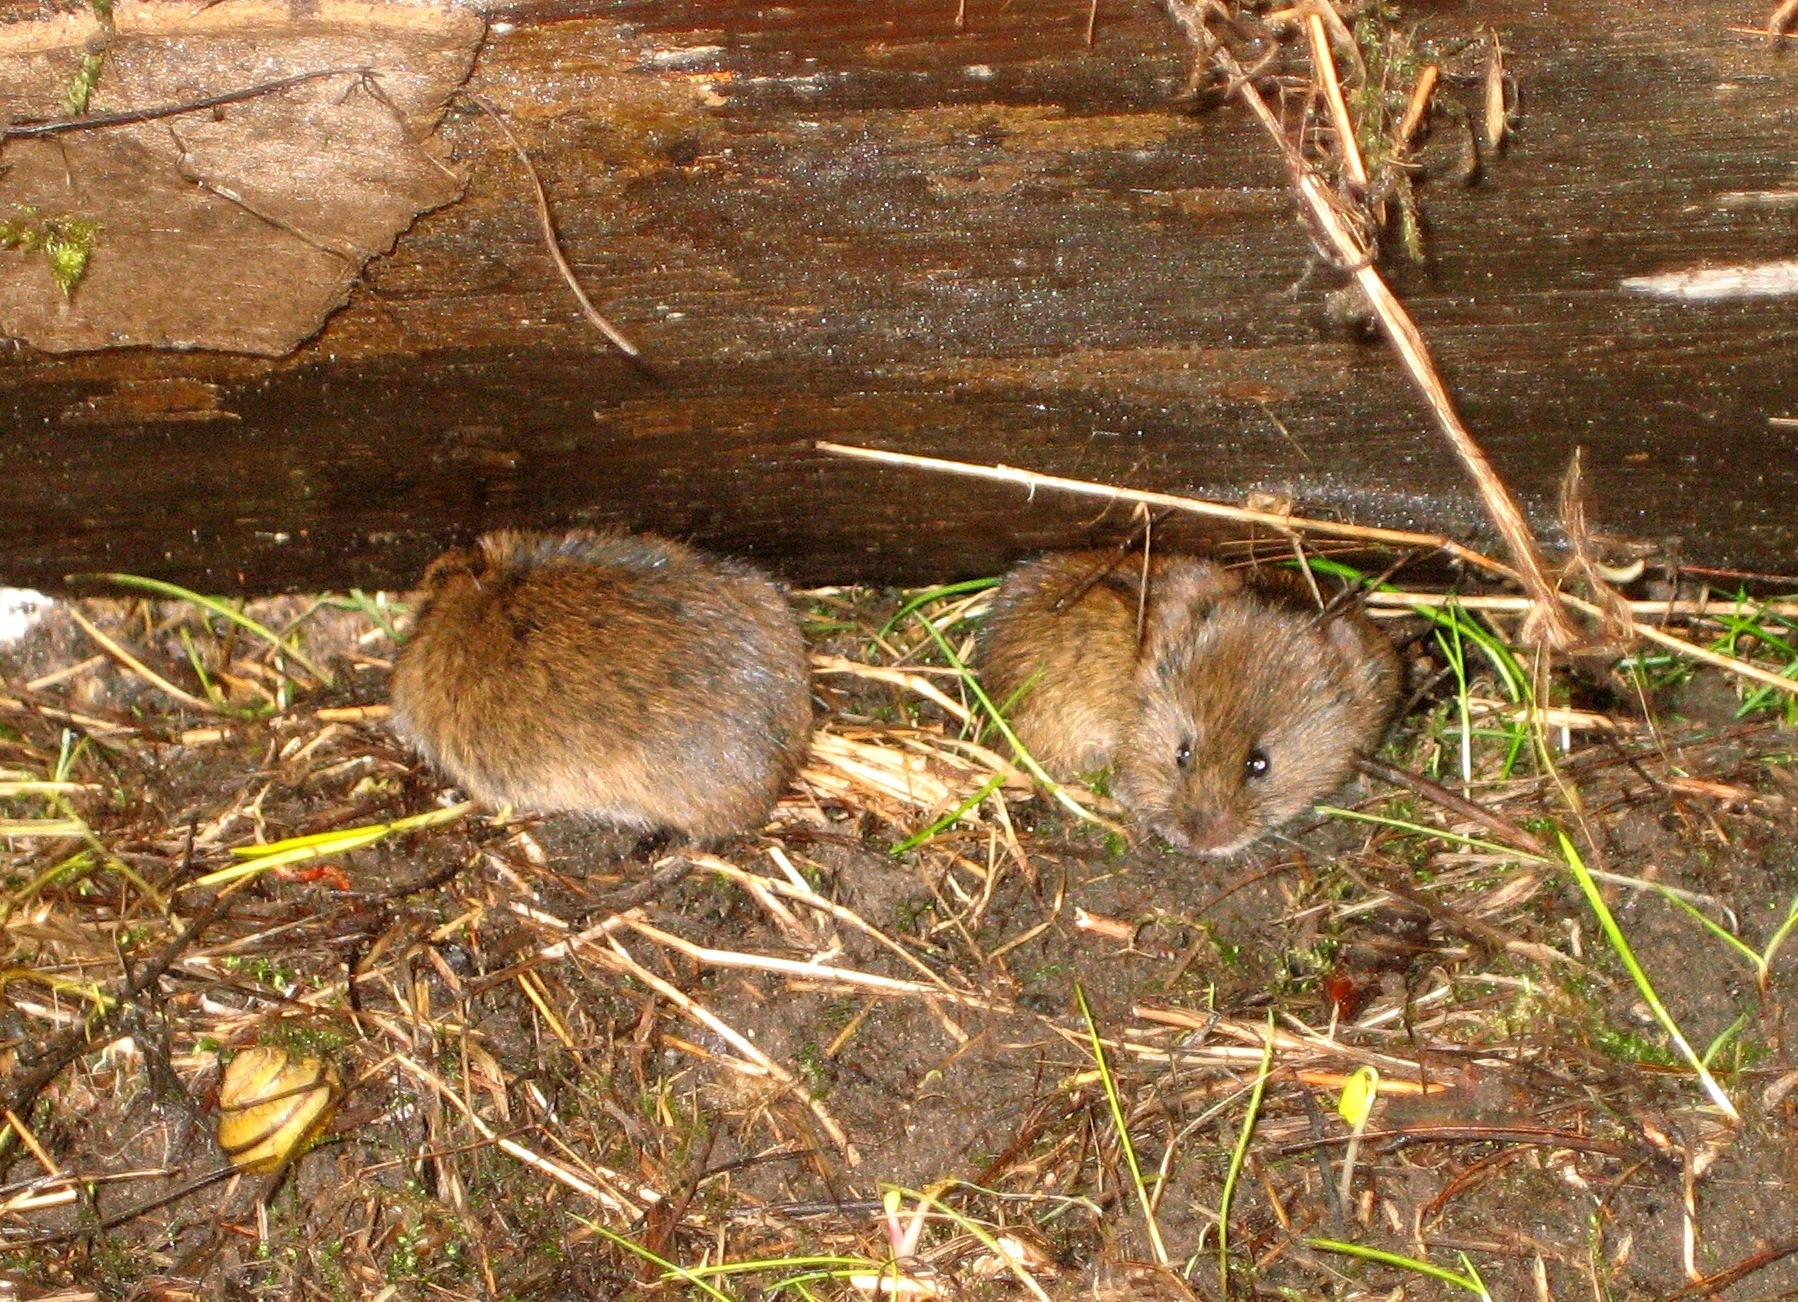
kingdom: Animalia
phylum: Chordata
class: Mammalia
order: Rodentia
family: Cricetidae
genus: Microtus
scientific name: Microtus agrestis
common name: Almindelig markmus
